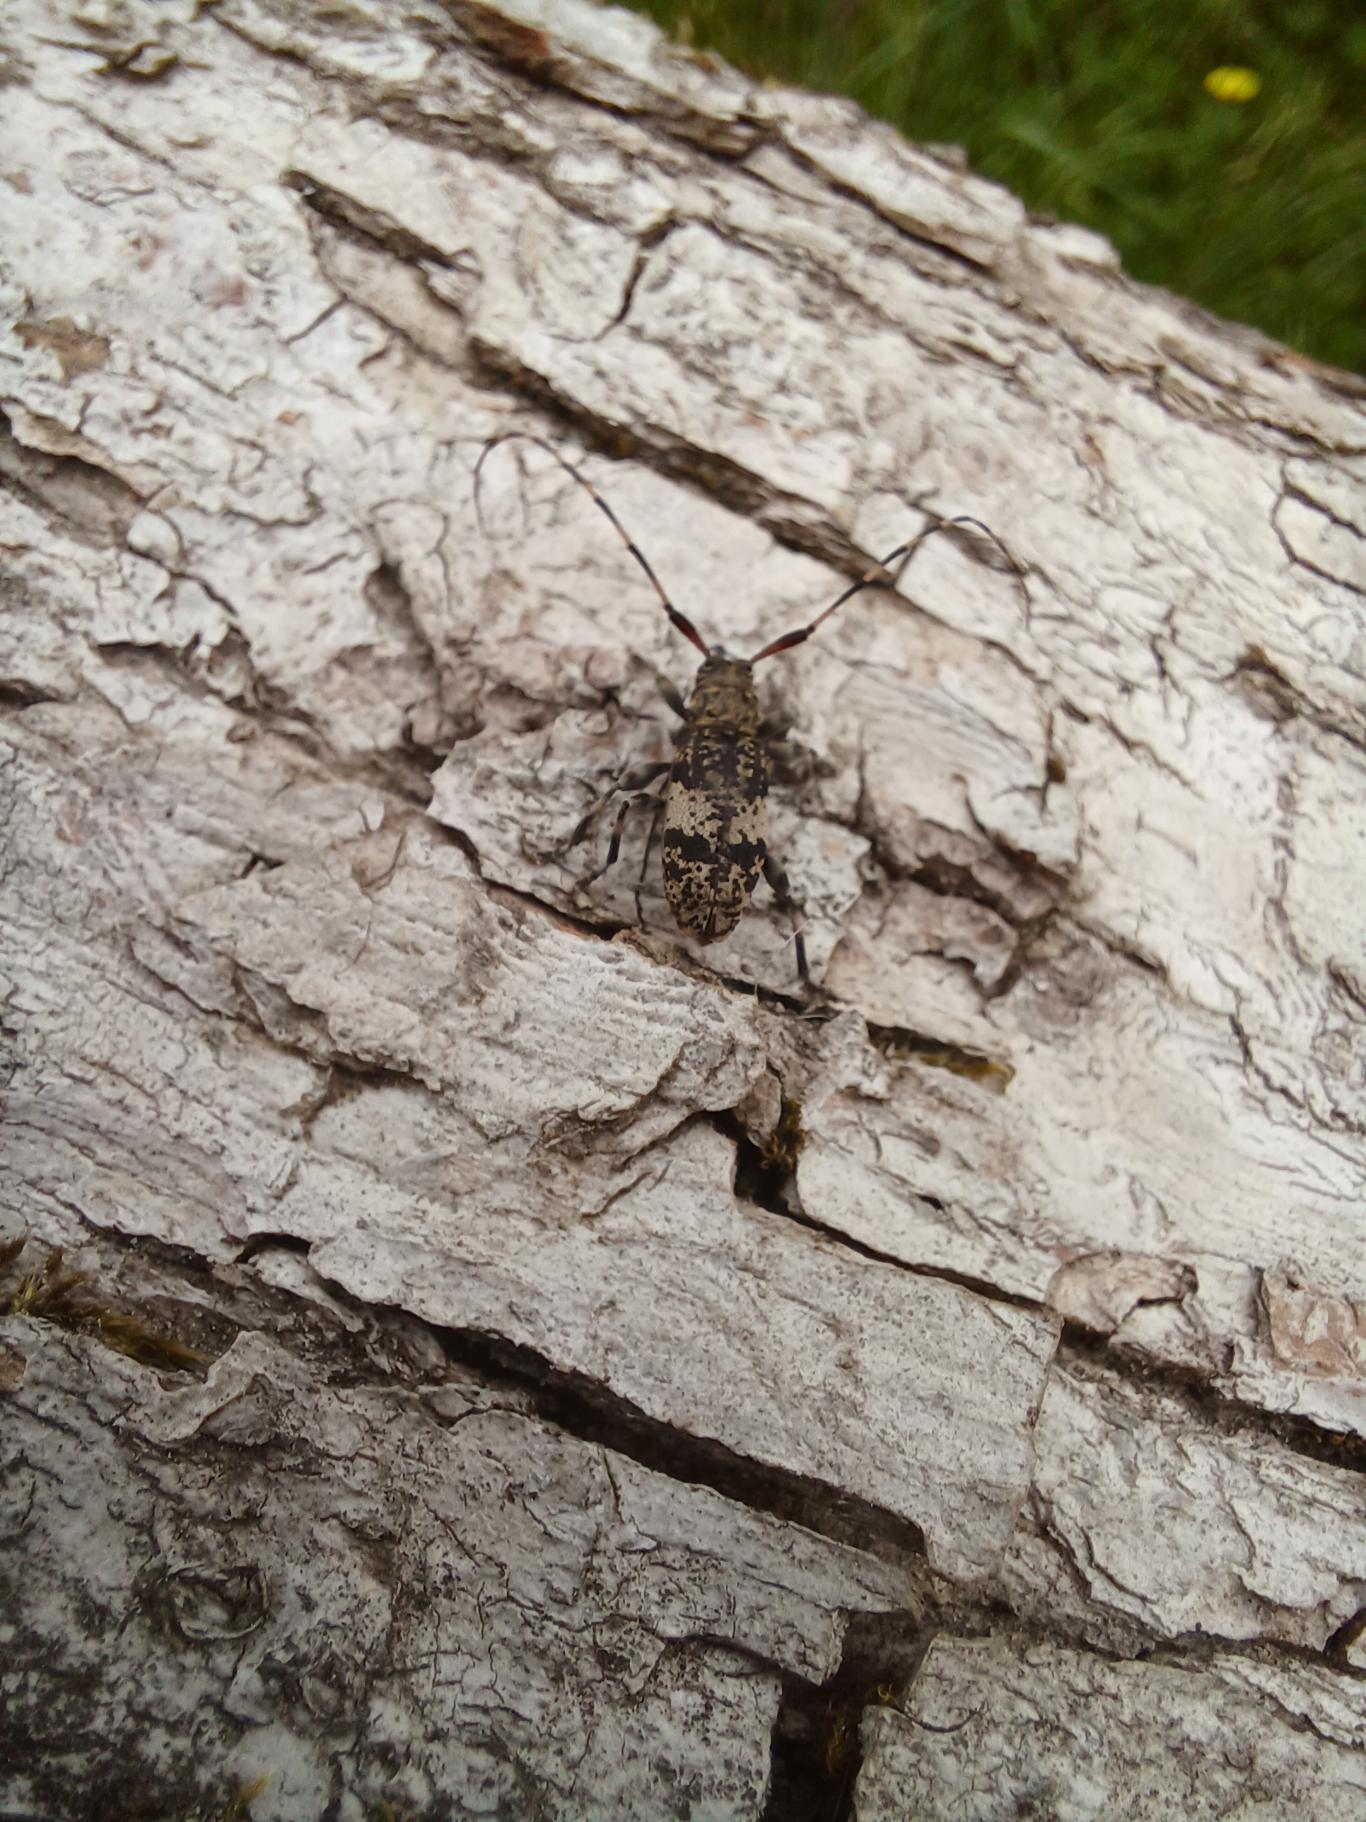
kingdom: Animalia
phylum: Arthropoda
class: Insecta
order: Coleoptera
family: Cerambycidae
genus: Leiopus
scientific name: Leiopus nebulosus
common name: Mørkbåndet gråbuk
